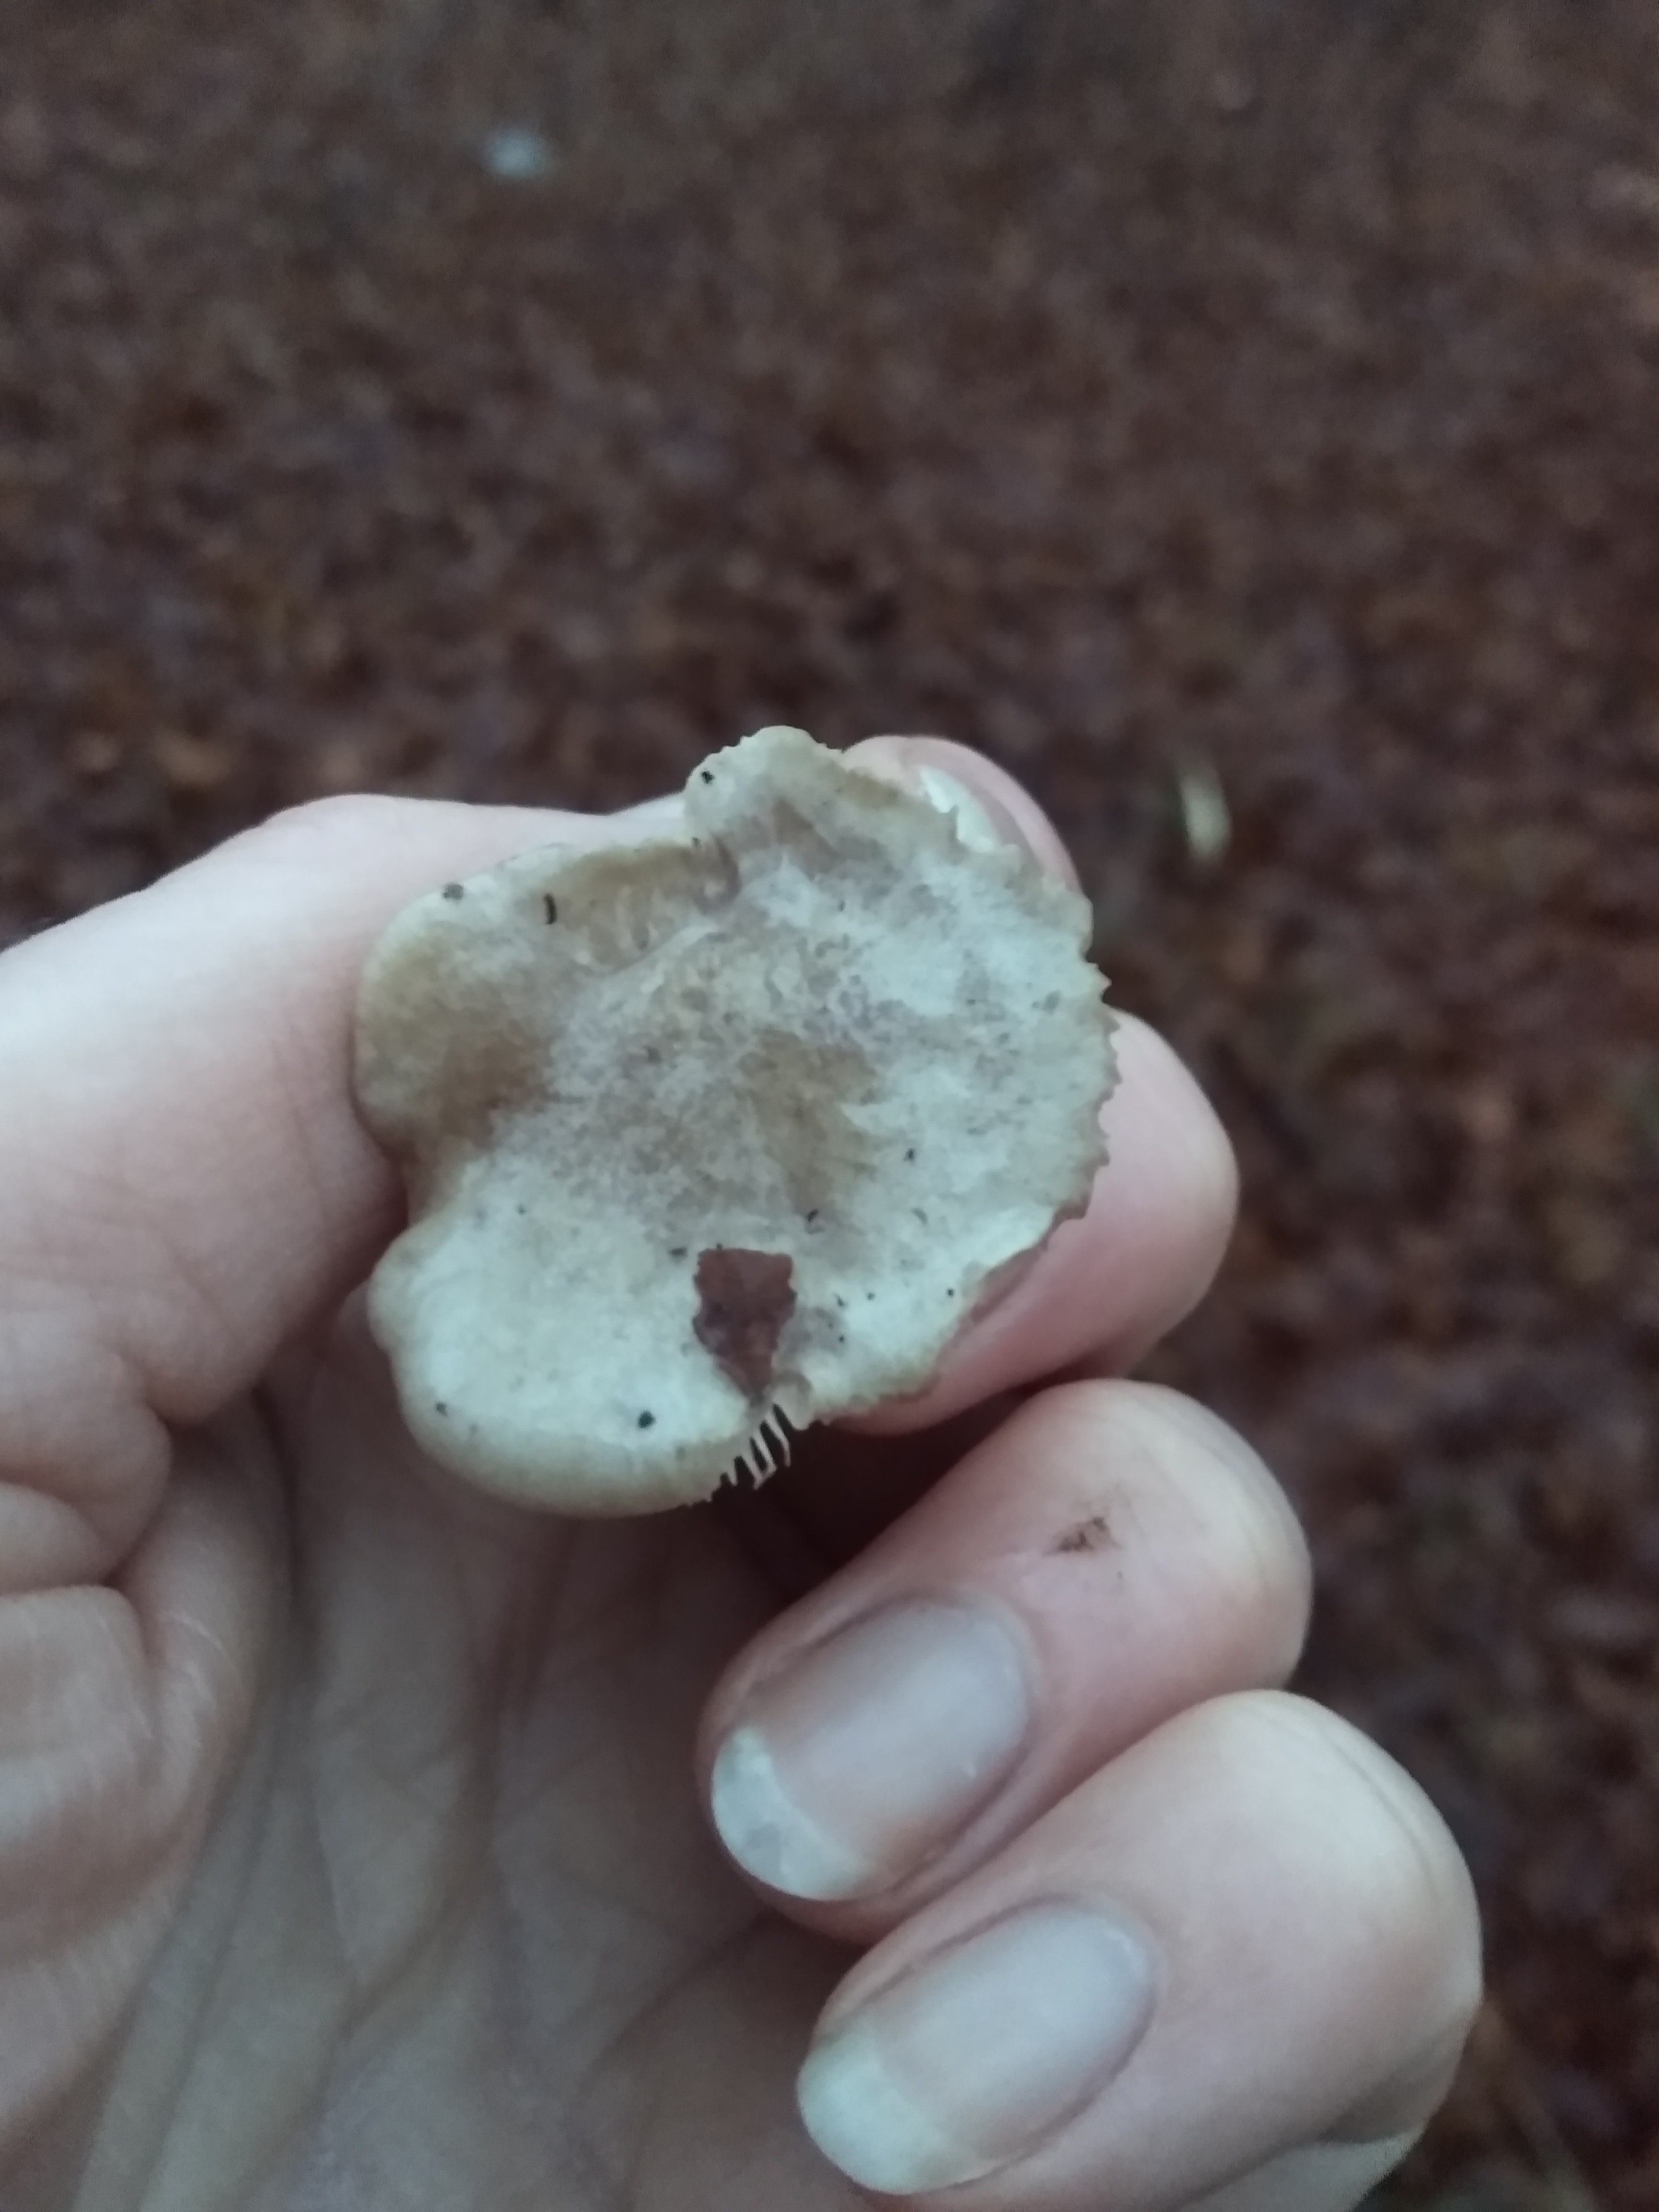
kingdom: Fungi
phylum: Basidiomycota
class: Agaricomycetes
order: Russulales
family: Russulaceae
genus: Lactarius
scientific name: Lactarius
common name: mælkehat
